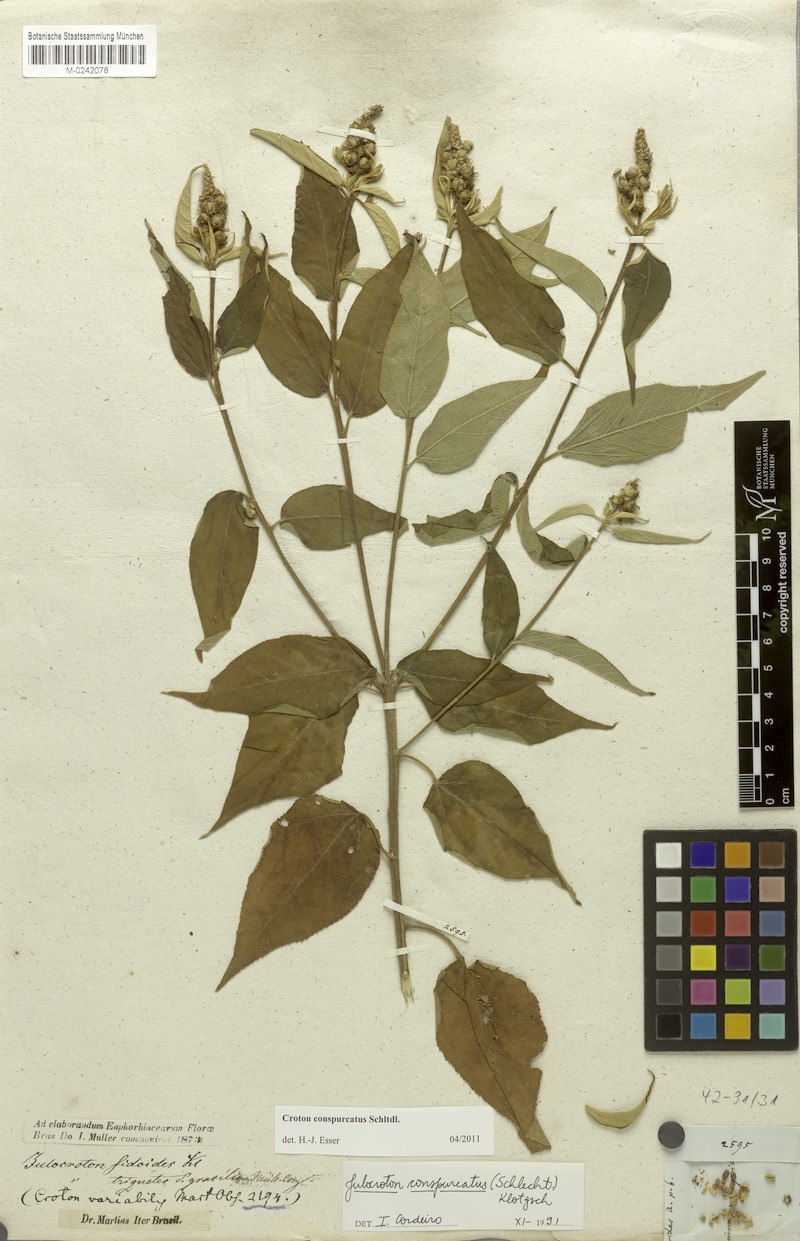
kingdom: Plantae
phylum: Tracheophyta
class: Magnoliopsida
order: Malpighiales
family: Euphorbiaceae
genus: Croton
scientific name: Croton conspurcatus
